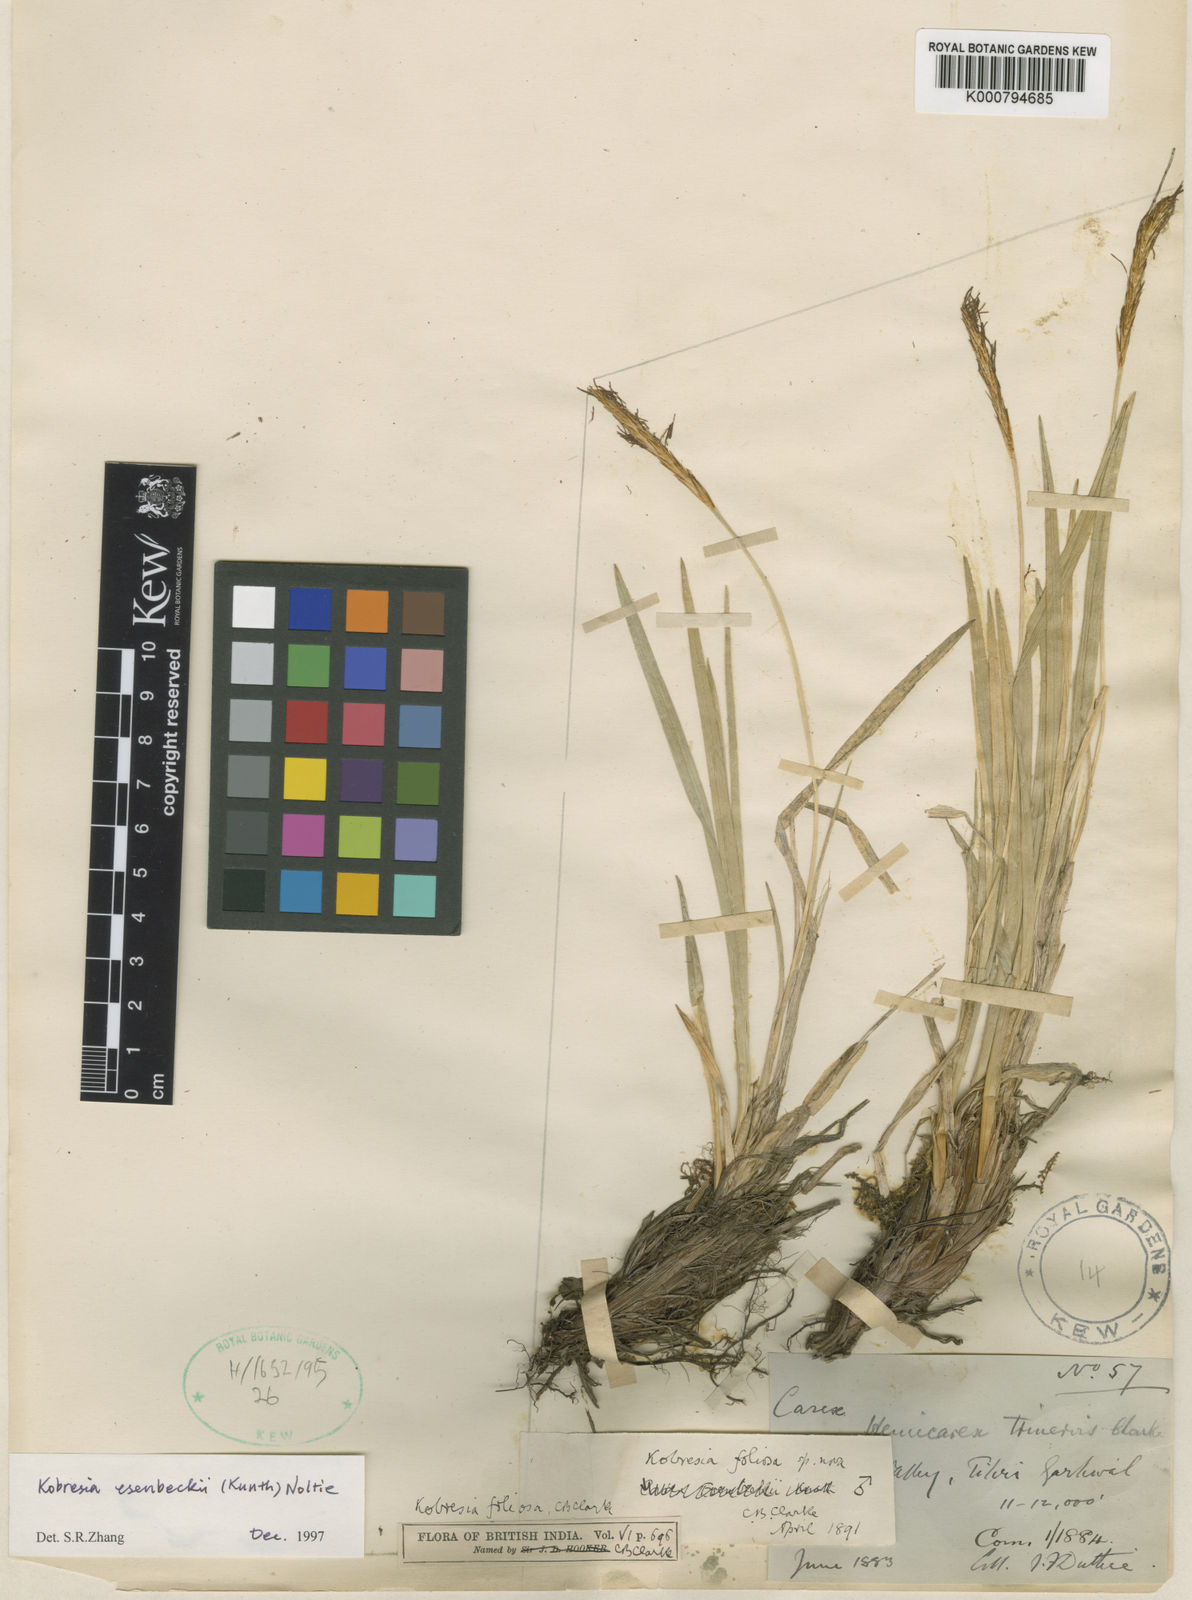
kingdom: Plantae
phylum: Tracheophyta
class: Liliopsida
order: Poales
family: Cyperaceae
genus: Carex
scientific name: Carex esenbeckii
